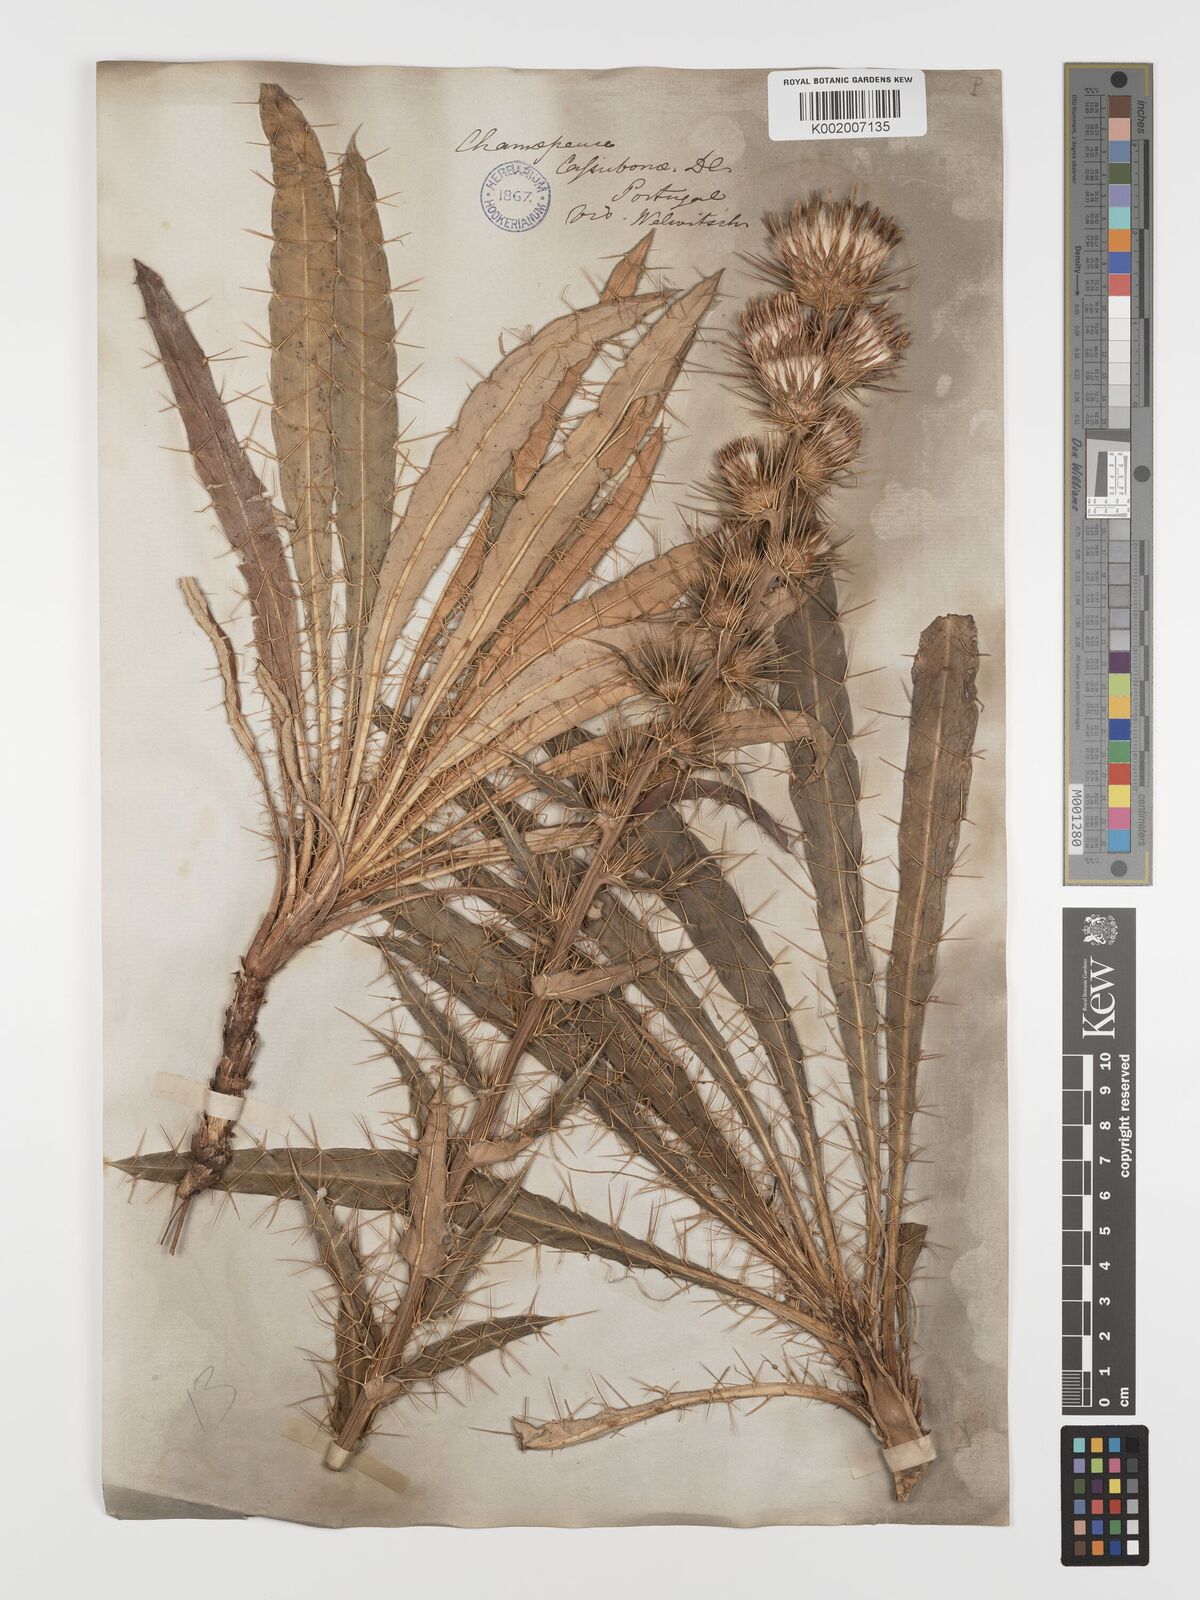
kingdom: Plantae
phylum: Tracheophyta
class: Magnoliopsida
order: Asterales
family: Asteraceae
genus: Ptilostemon
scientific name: Ptilostemon casabonae
